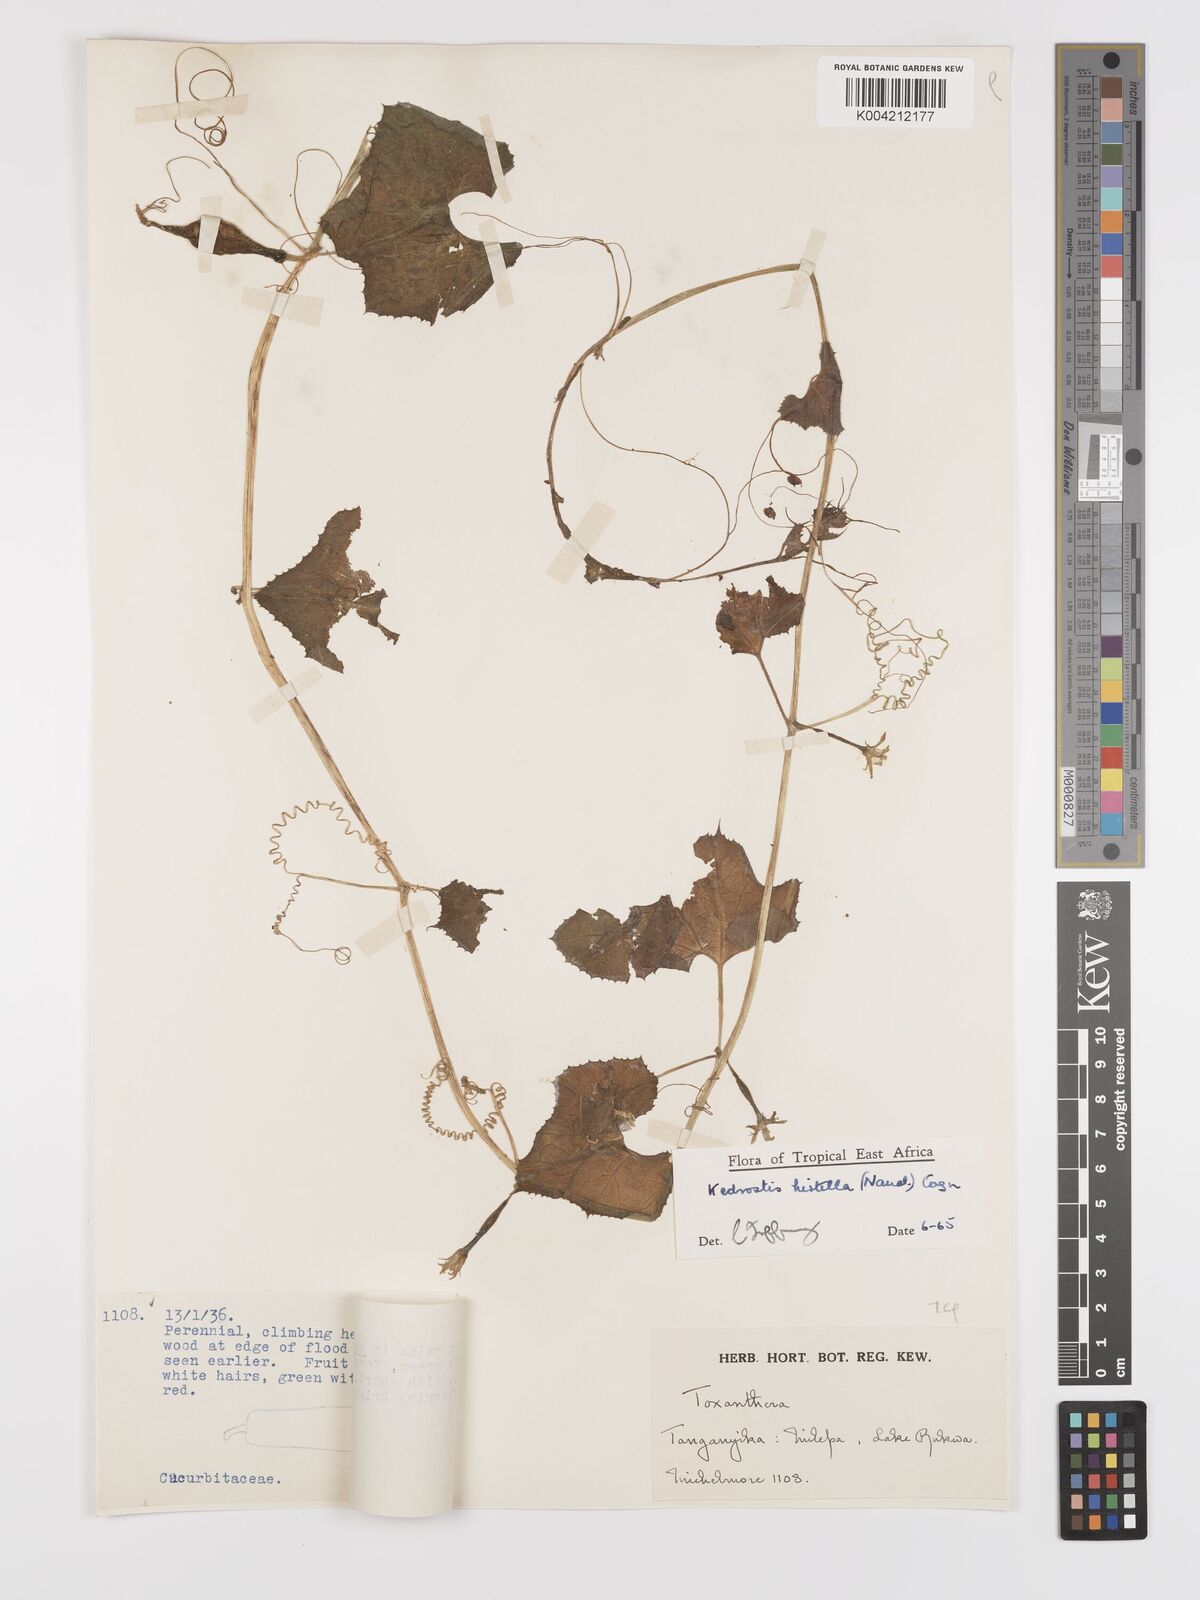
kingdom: Plantae
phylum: Tracheophyta
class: Magnoliopsida
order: Cucurbitales
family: Cucurbitaceae
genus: Kedrostis
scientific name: Kedrostis leloja
